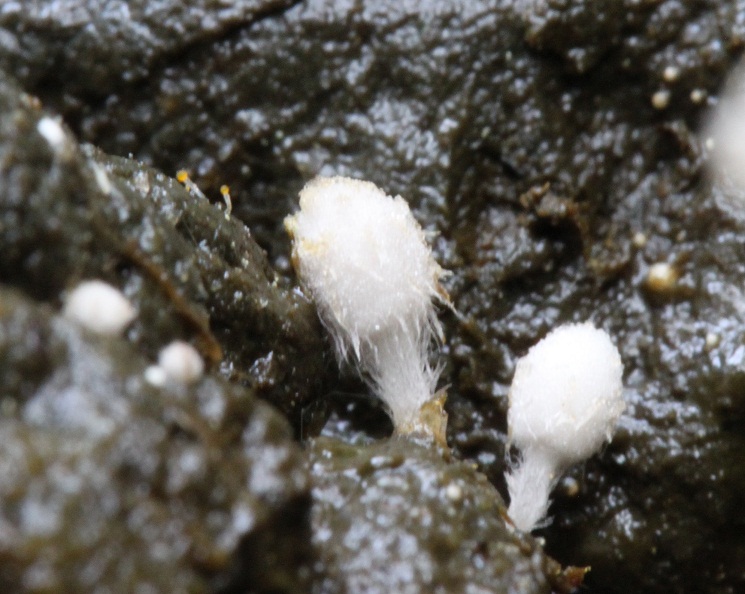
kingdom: Fungi
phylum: Basidiomycota
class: Agaricomycetes
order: Agaricales
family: Psathyrellaceae
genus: Coprinopsis
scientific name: Coprinopsis stercorea
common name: pjusket blækhat
